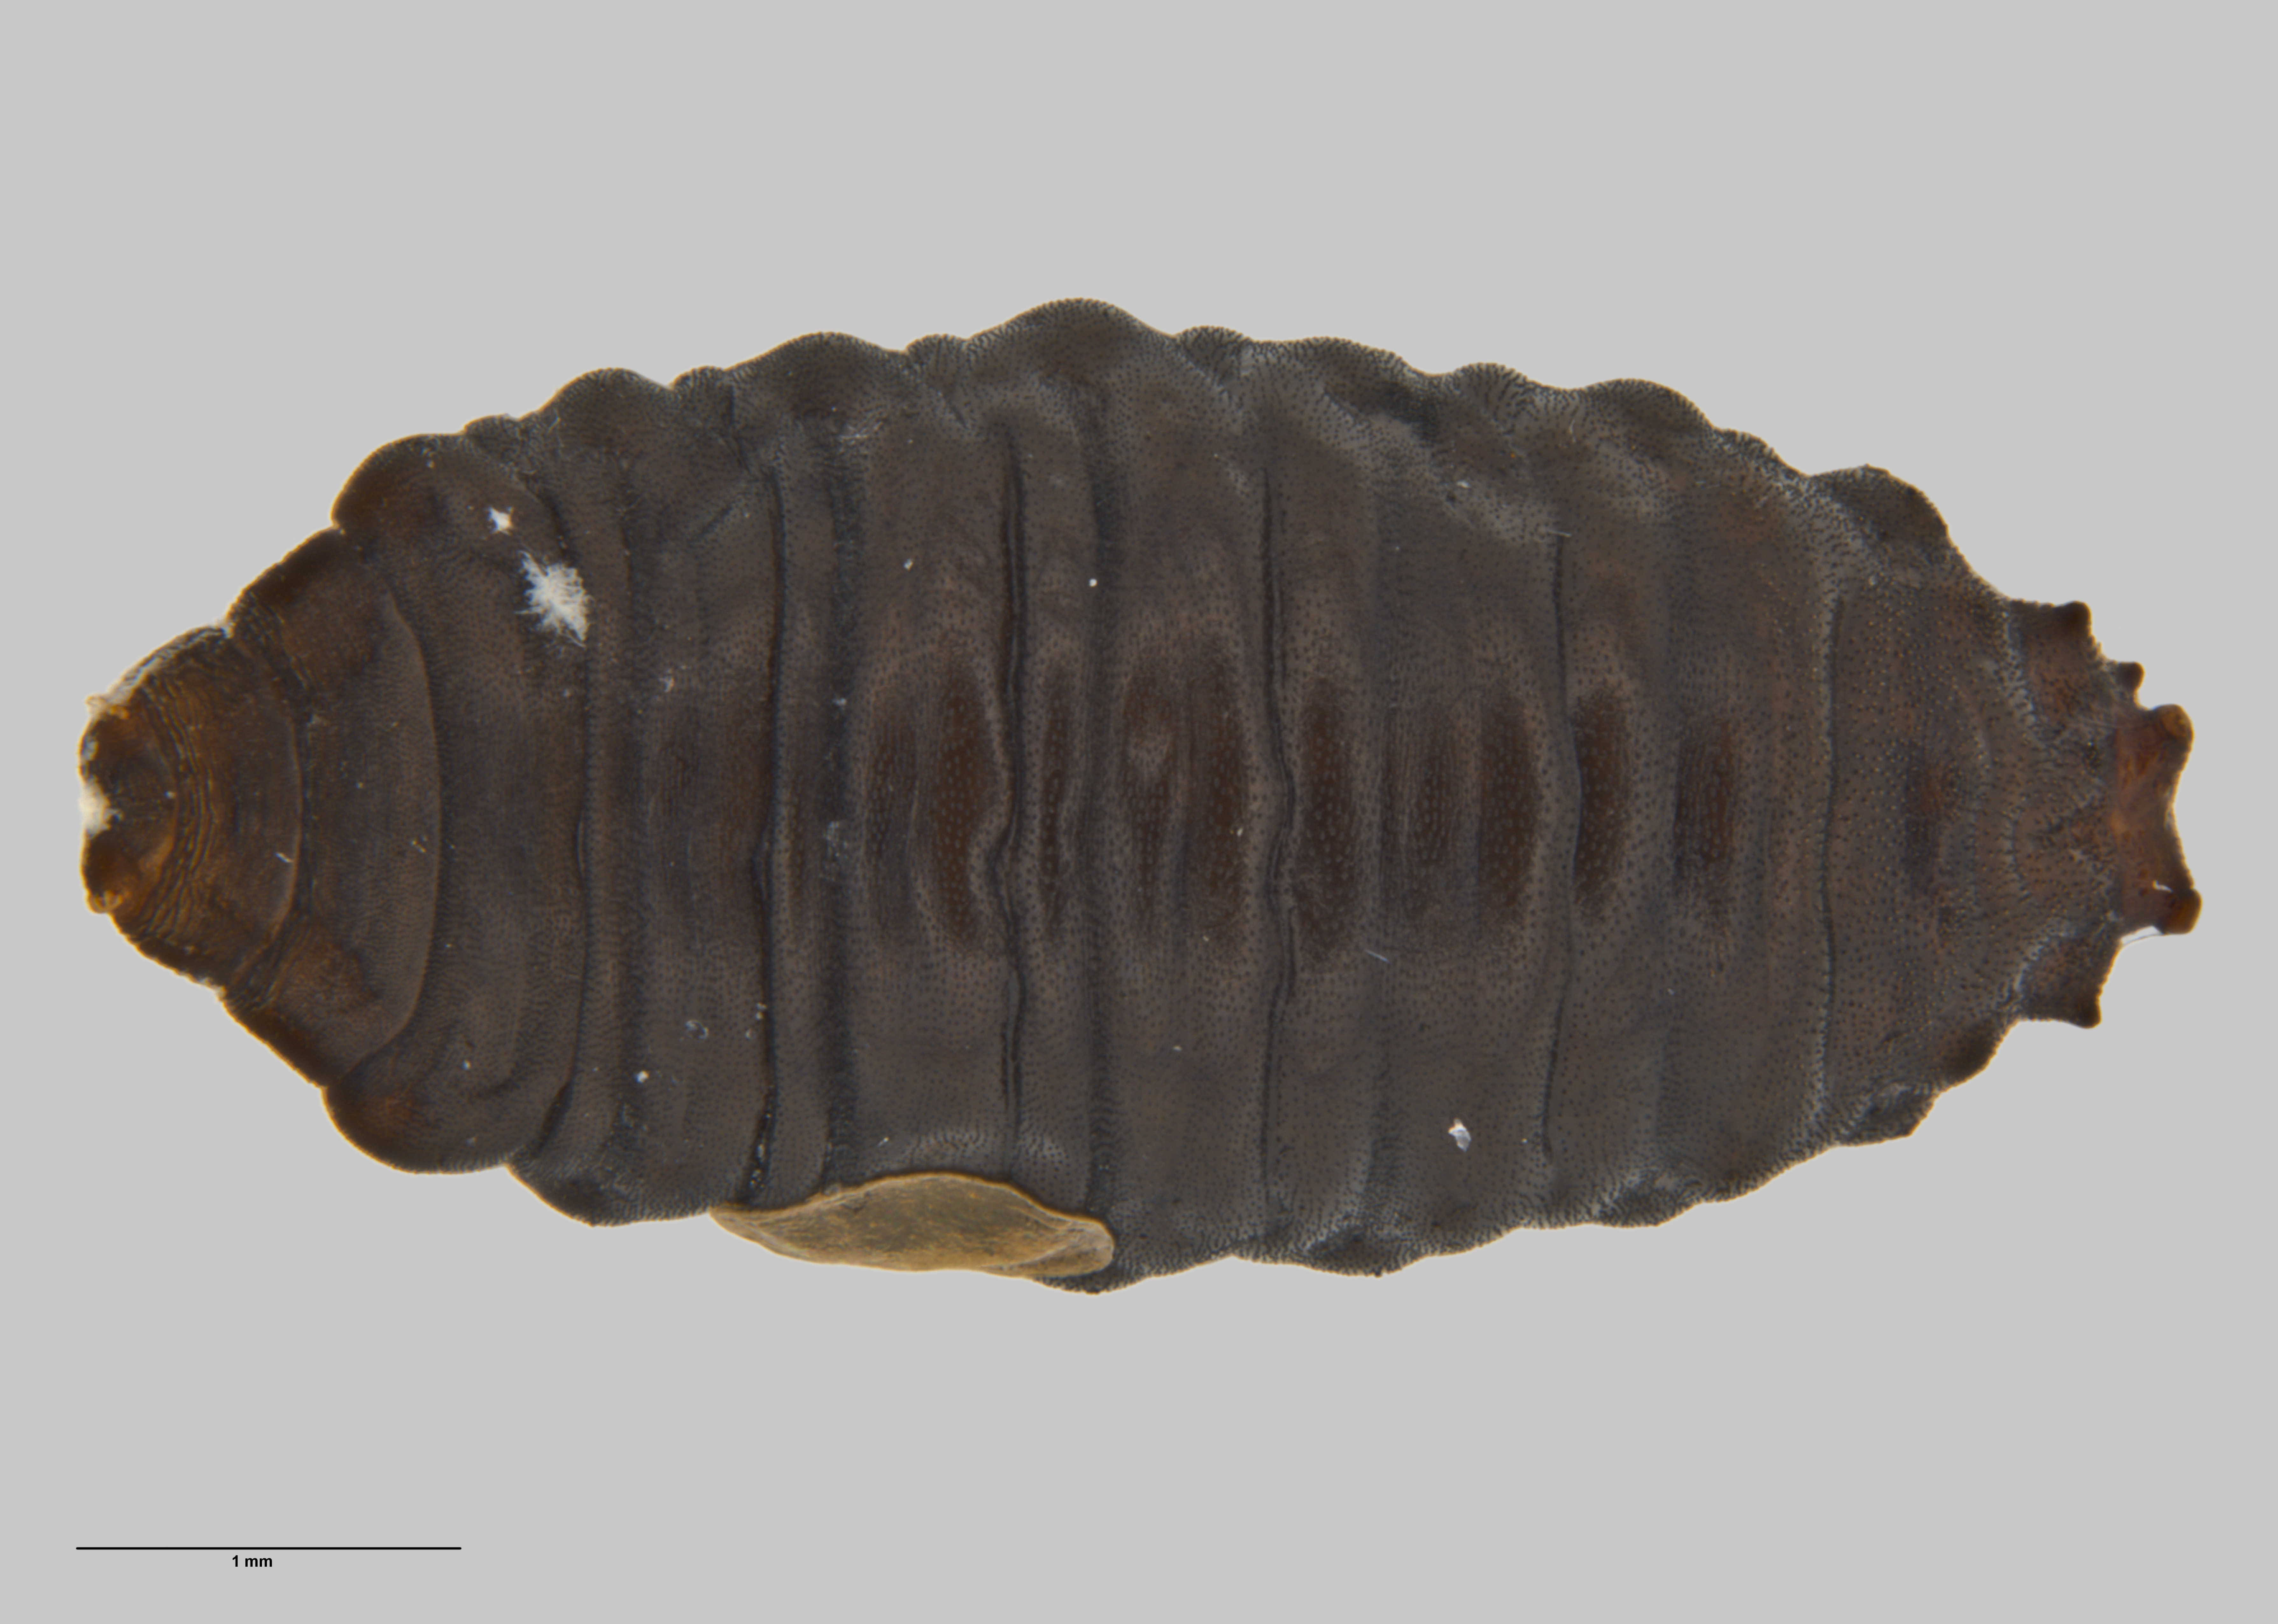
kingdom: Animalia
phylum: Arthropoda
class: Insecta
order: Diptera
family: Ephydridae
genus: Hecamede
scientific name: Hecamede granifera
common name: Shore fly
